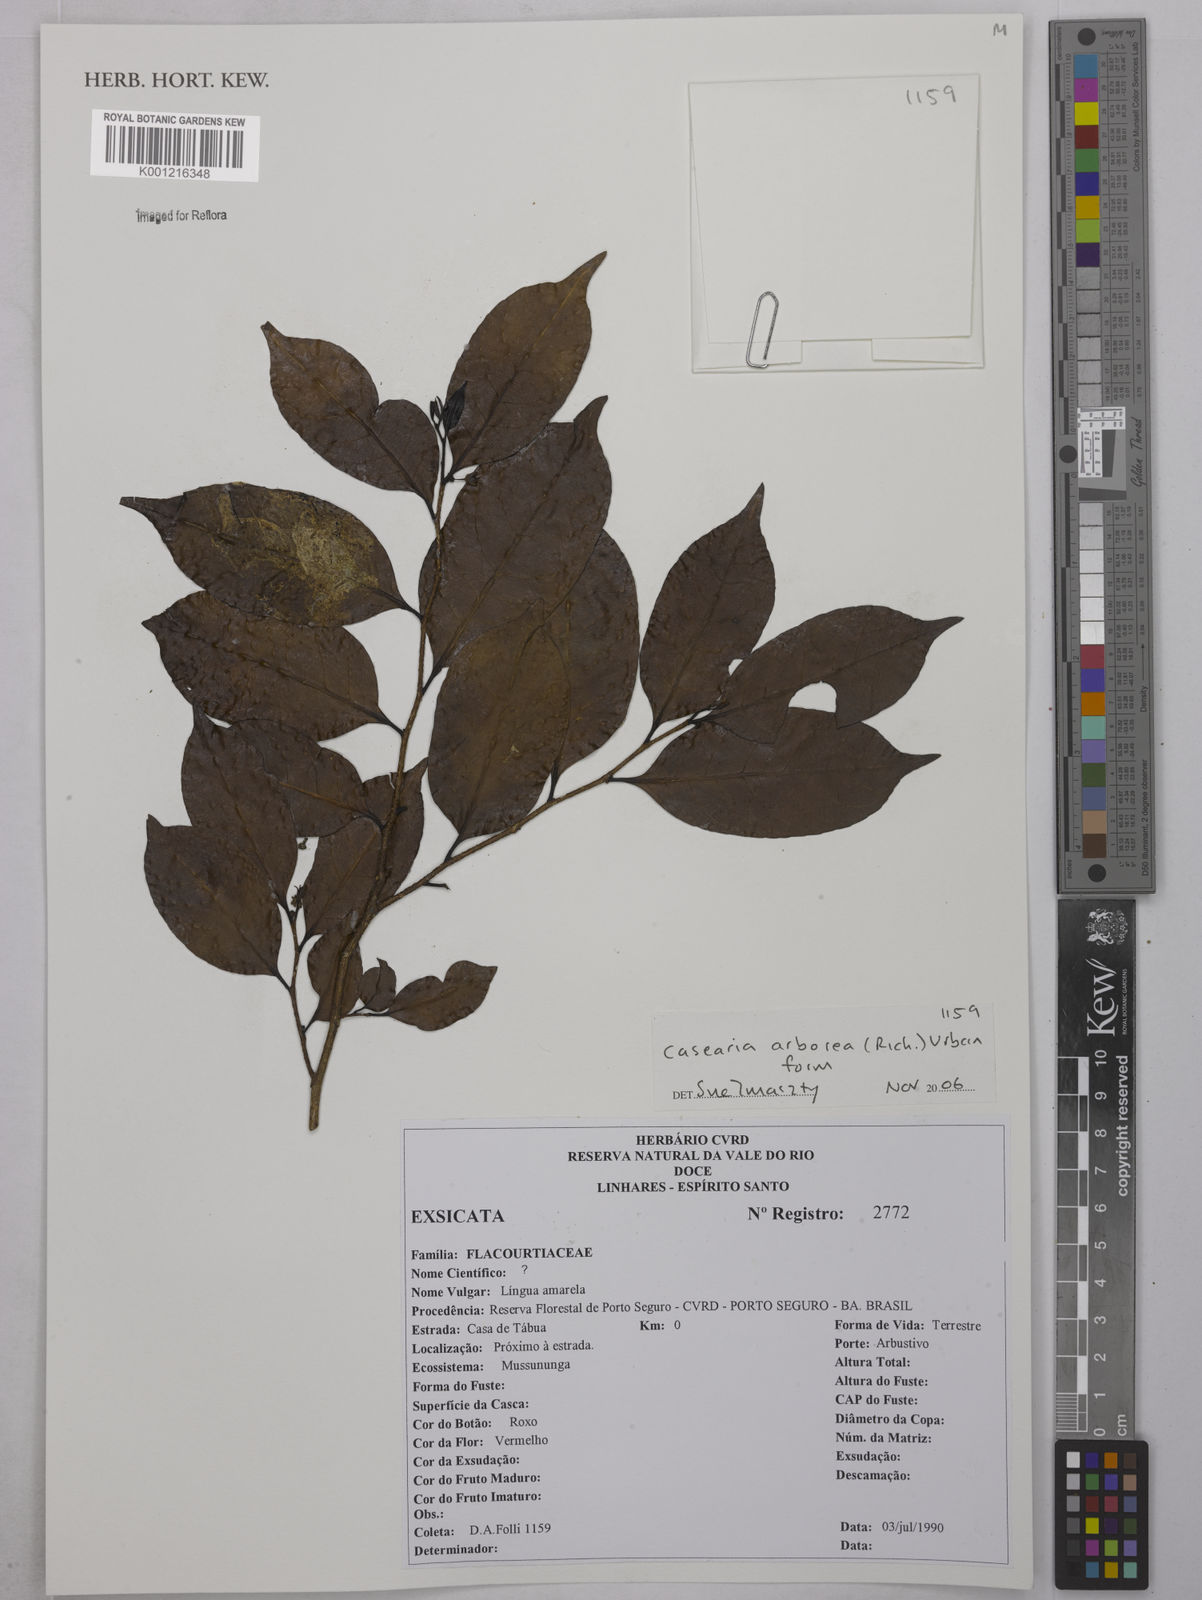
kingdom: Plantae
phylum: Tracheophyta
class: Magnoliopsida
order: Malpighiales
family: Salicaceae
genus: Casearia
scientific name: Casearia arborea
